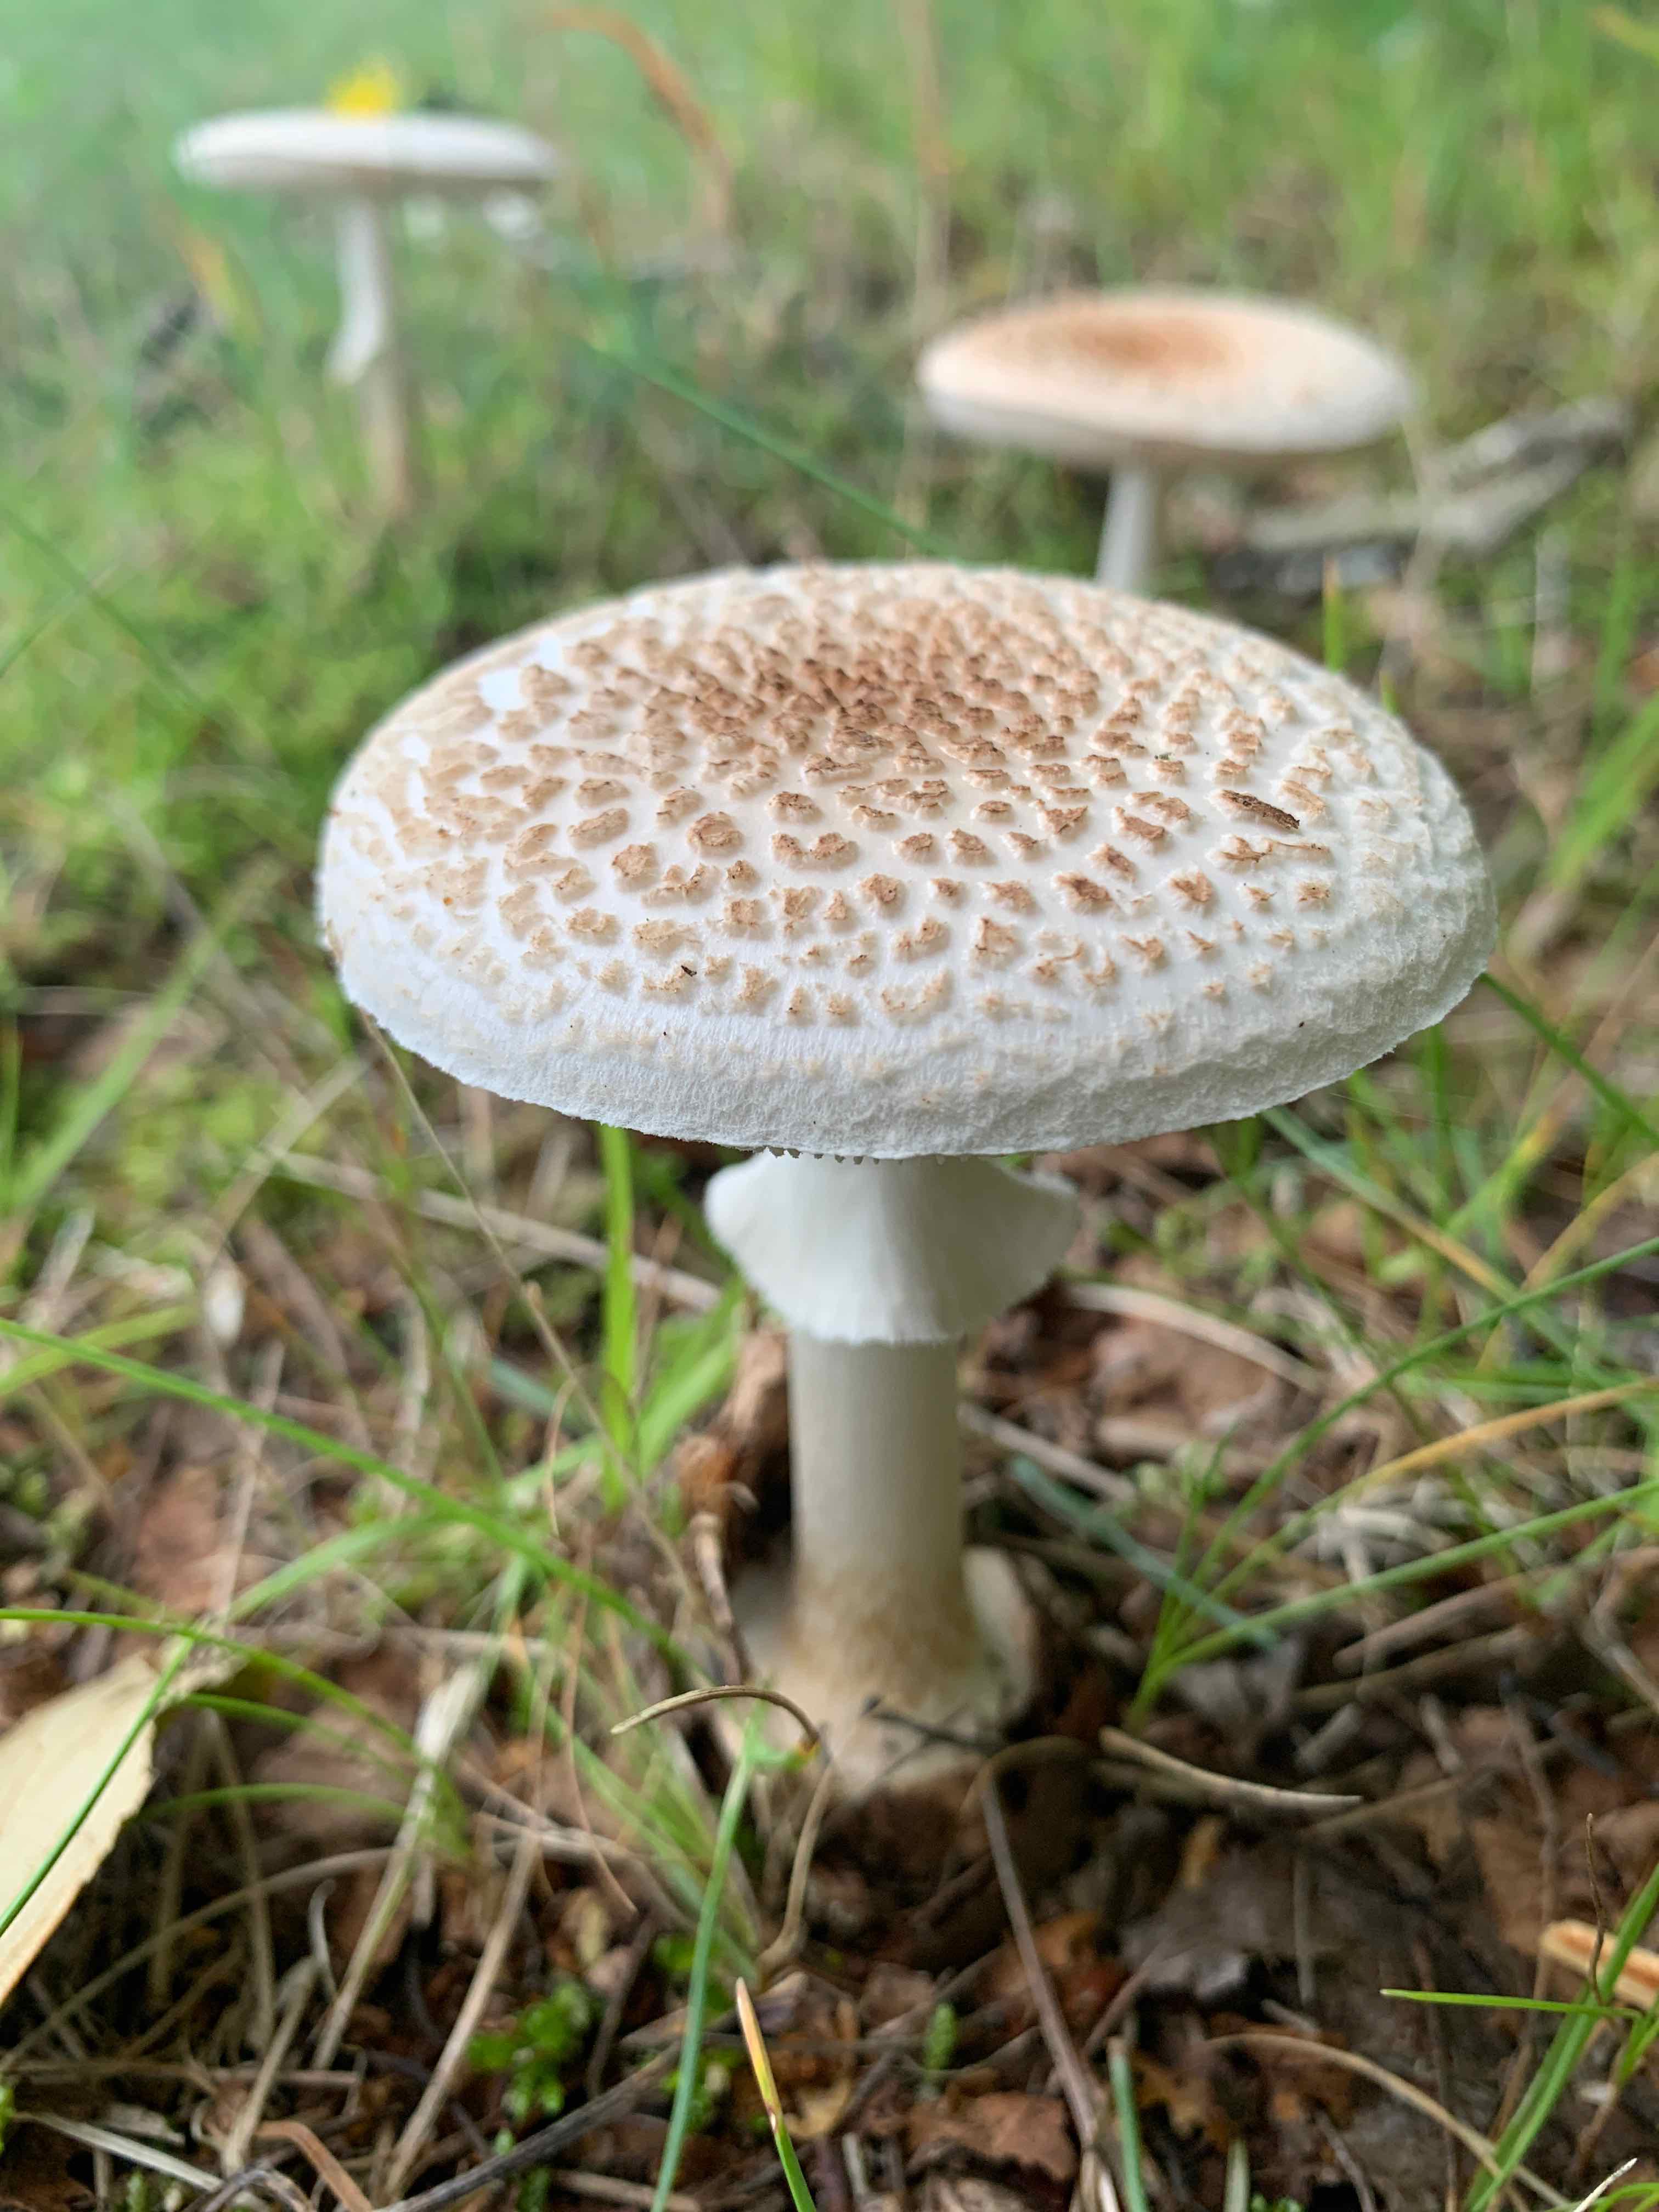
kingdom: Fungi
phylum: Basidiomycota
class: Agaricomycetes
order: Agaricales
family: Amanitaceae
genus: Amanita
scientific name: Amanita citrina
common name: False death-cap
